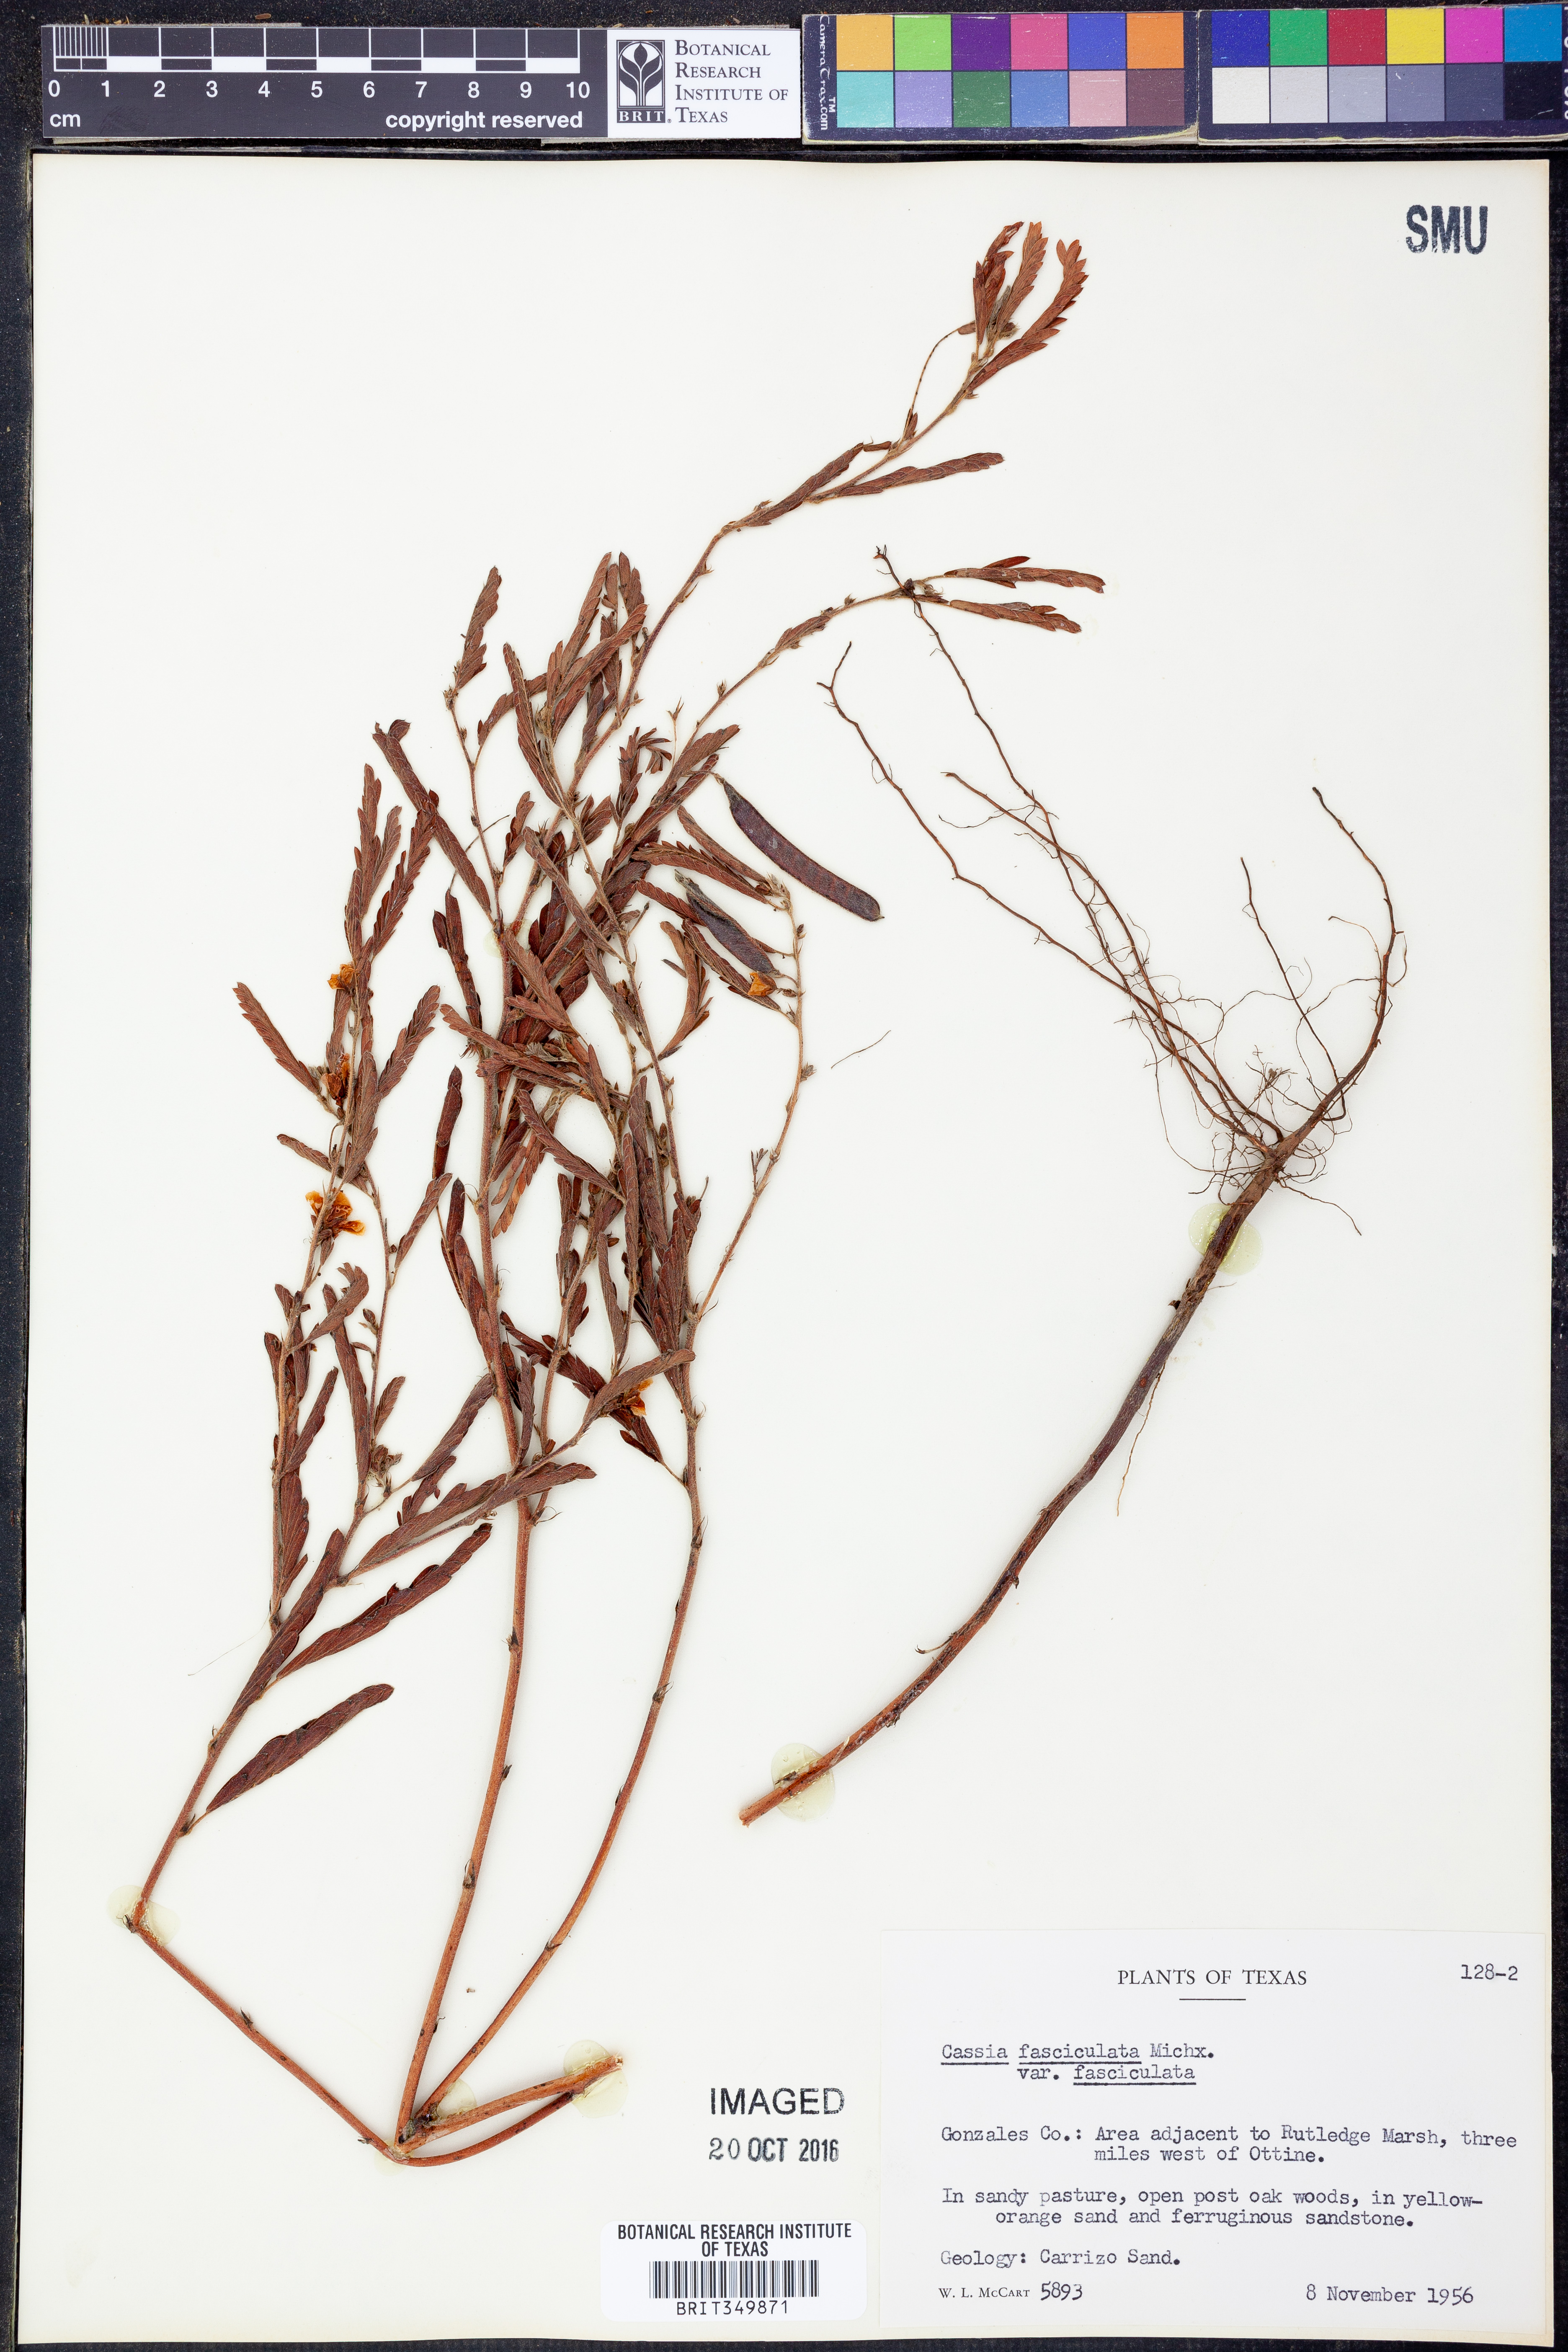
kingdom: Plantae
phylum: Tracheophyta
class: Magnoliopsida
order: Fabales
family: Fabaceae
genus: Chamaecrista
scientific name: Chamaecrista fasciculata
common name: Golden cassia
